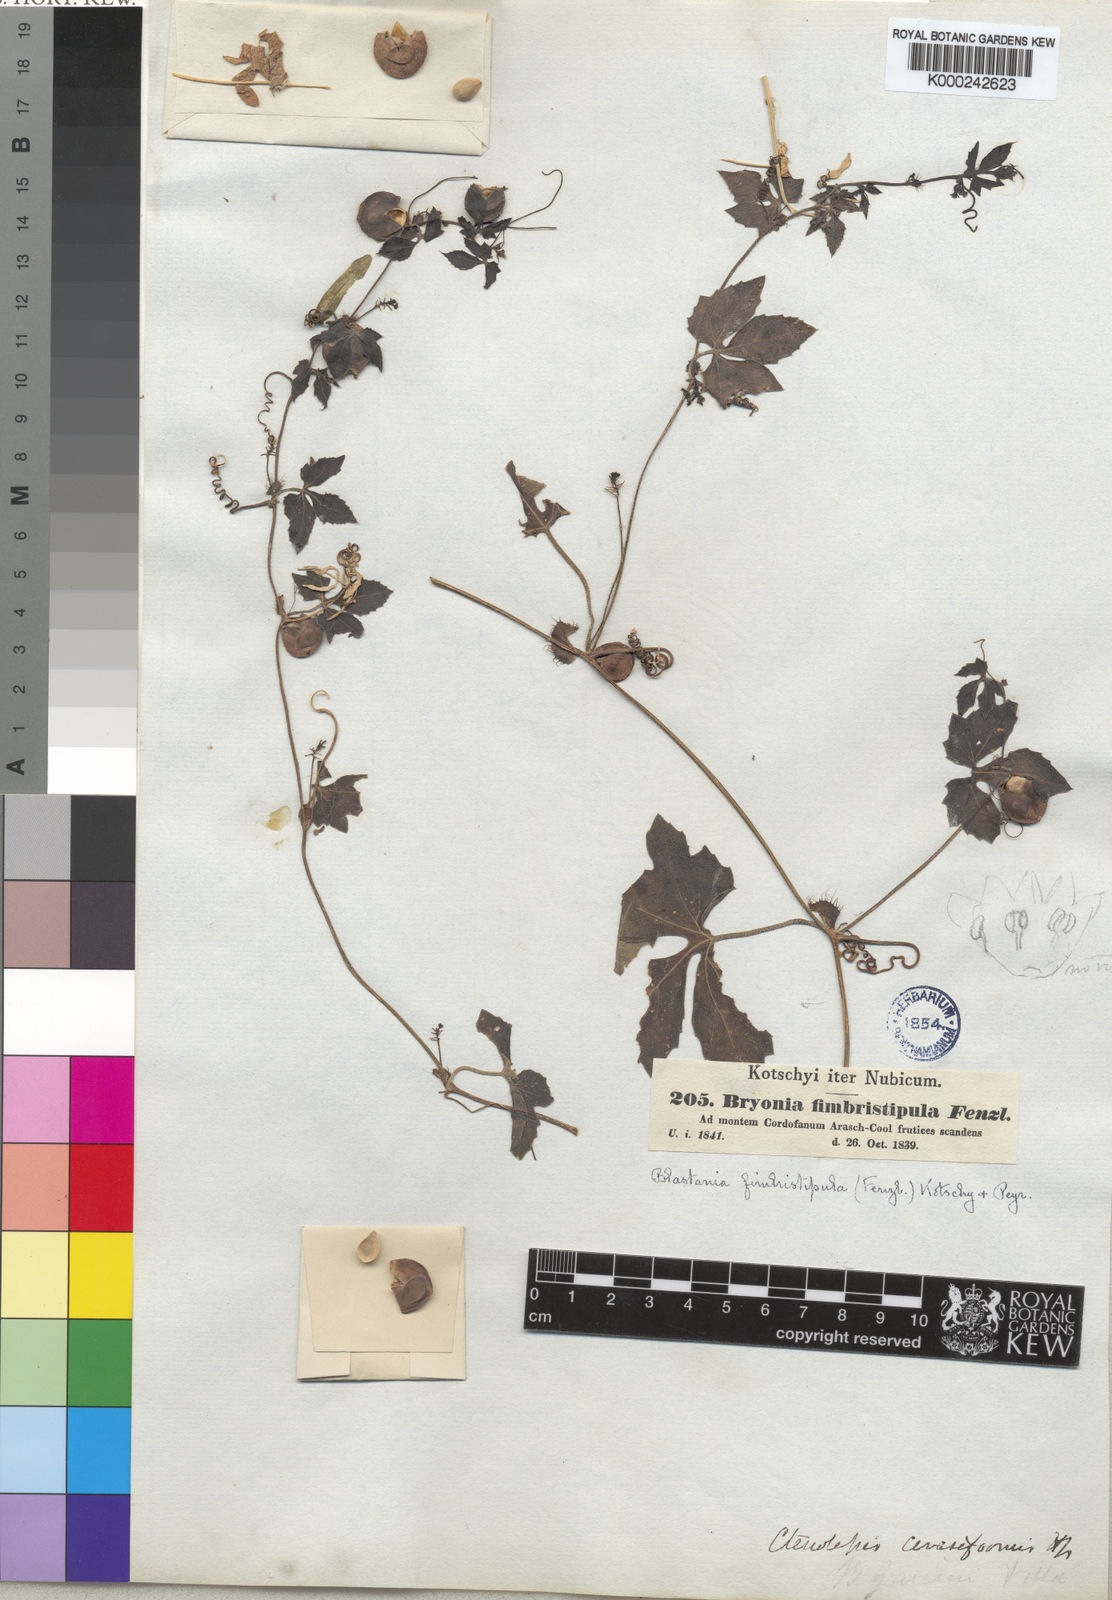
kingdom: Plantae
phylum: Tracheophyta
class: Magnoliopsida
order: Cucurbitales
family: Cucurbitaceae
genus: Blastania
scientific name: Blastania
